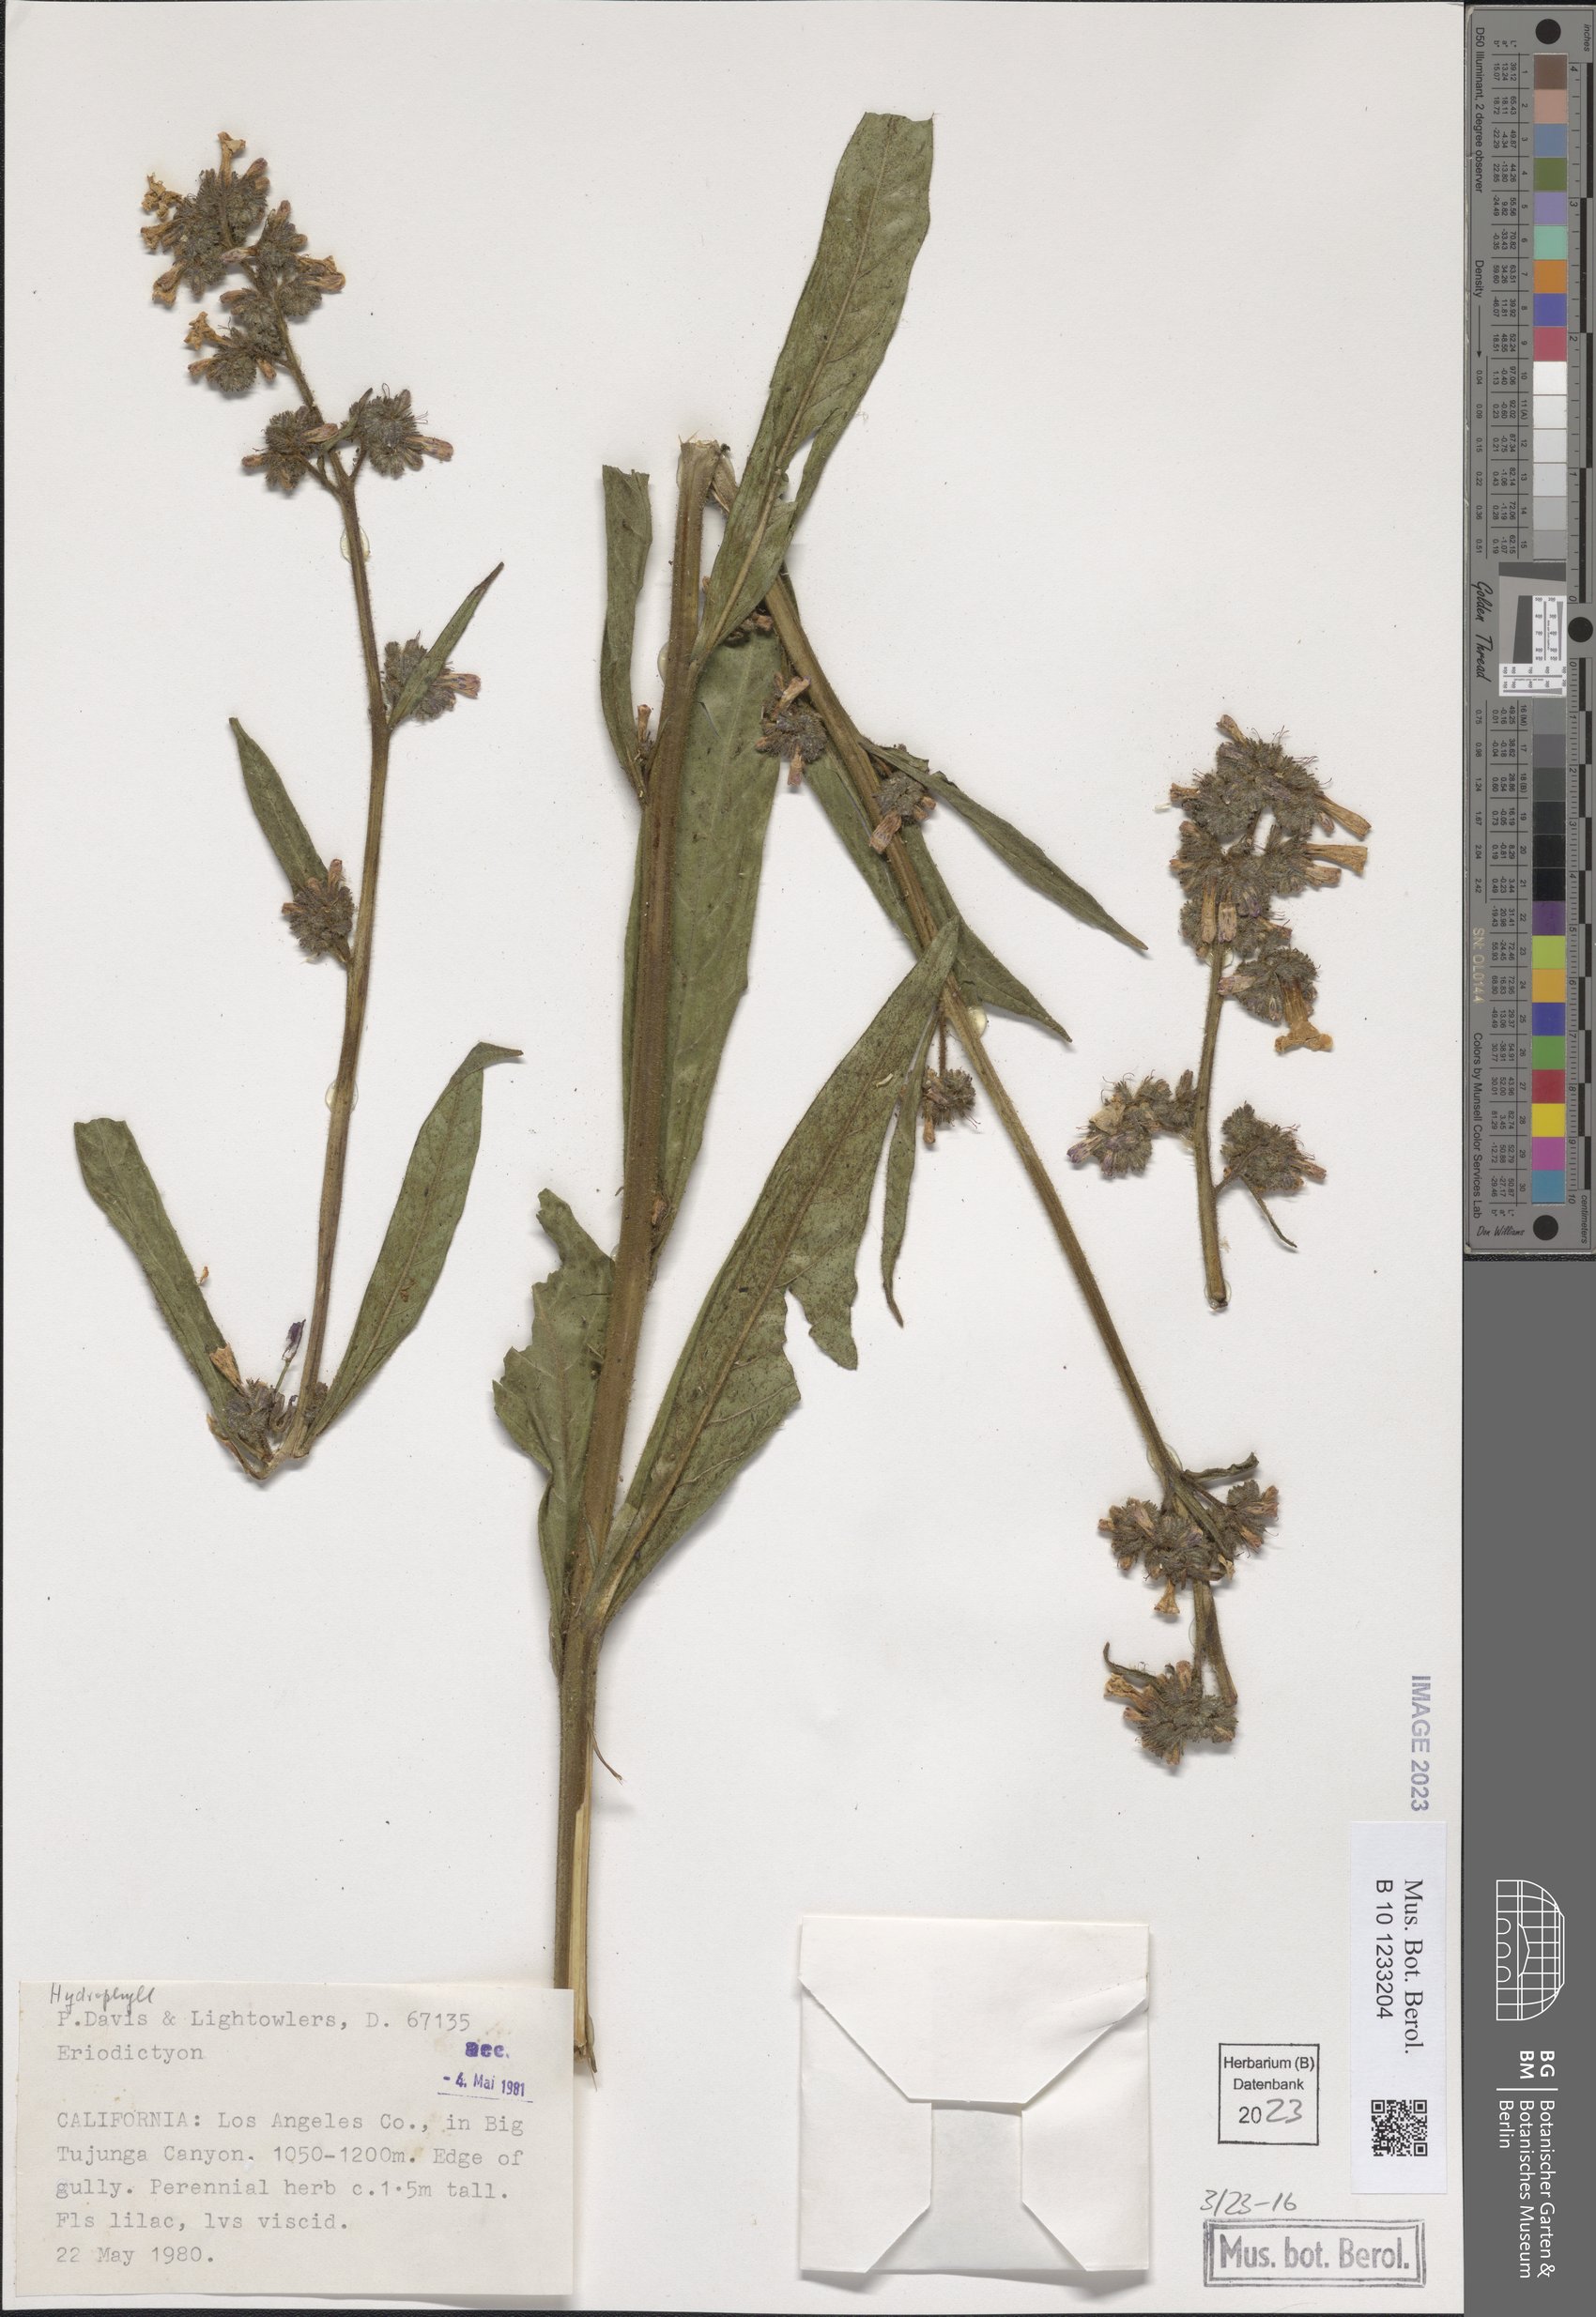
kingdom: Plantae
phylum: Tracheophyta
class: Magnoliopsida
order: Boraginales
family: Namaceae
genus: Eriodictyon
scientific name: Eriodictyon trichocalyx
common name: Hairy yerba-santa
